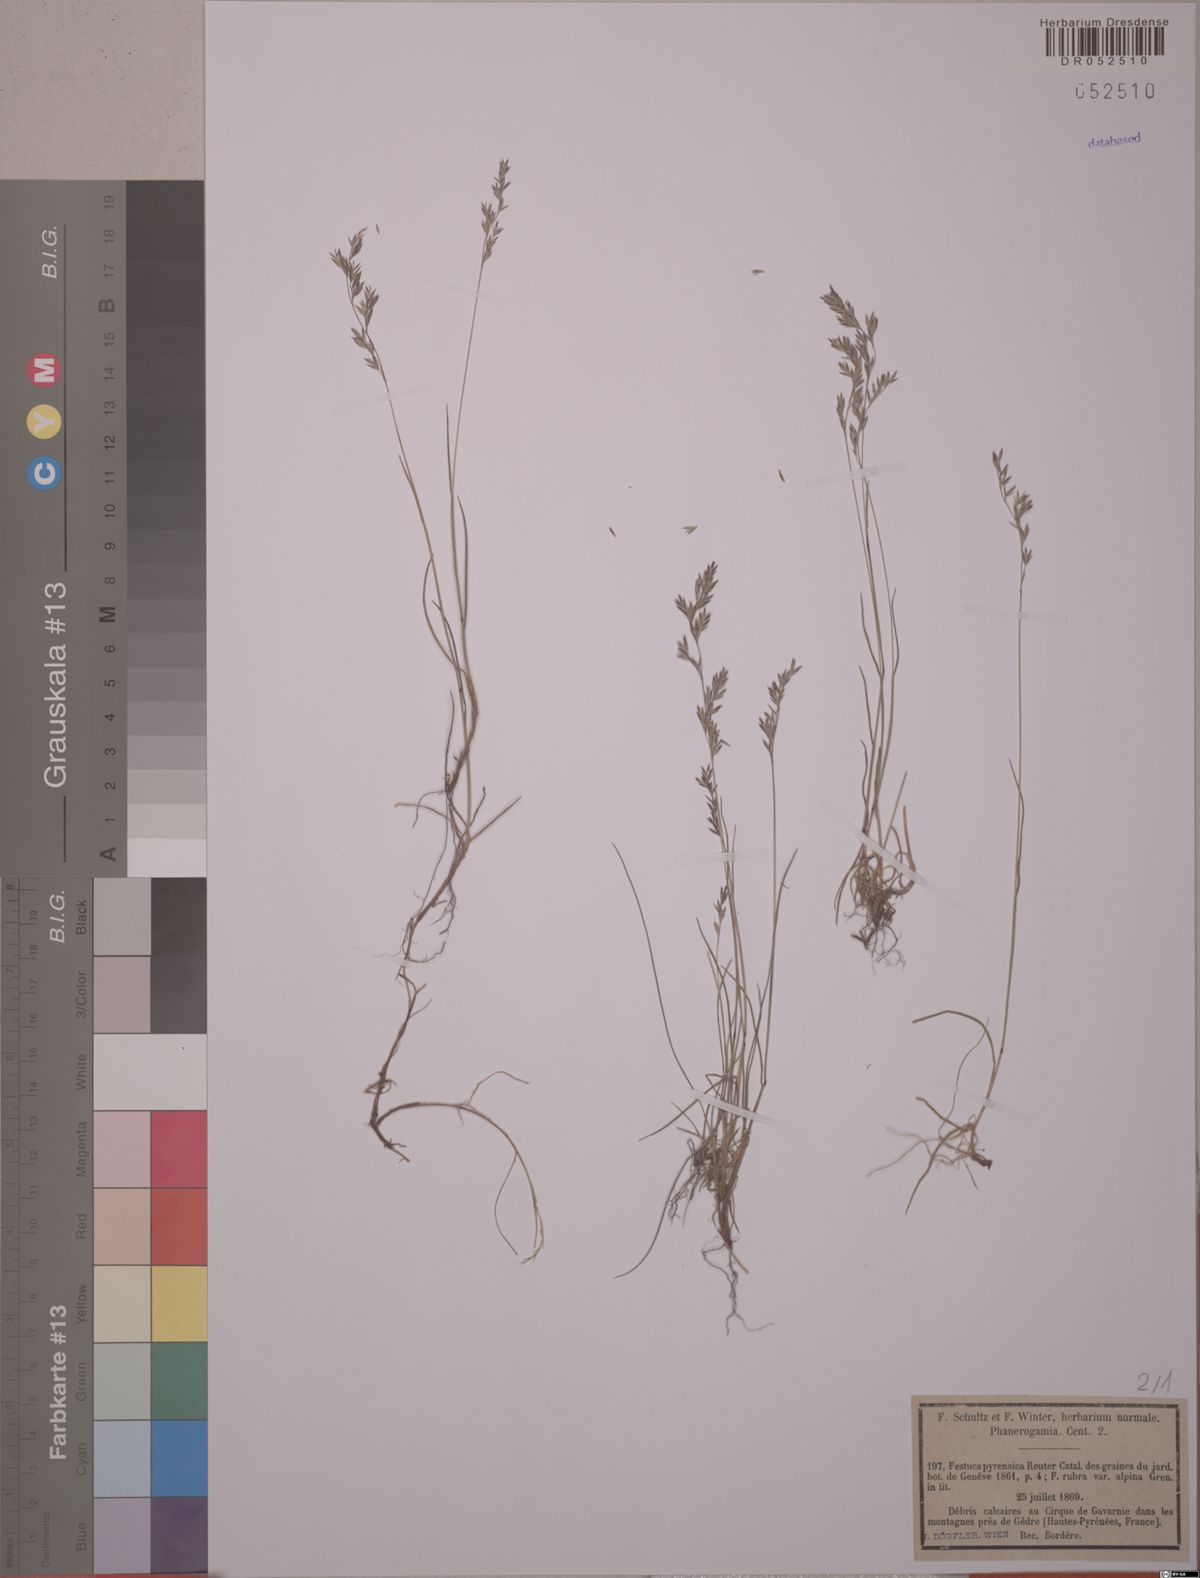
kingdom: Plantae
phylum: Tracheophyta
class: Liliopsida
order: Poales
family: Poaceae
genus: Festuca
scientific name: Festuca pyrenaica
